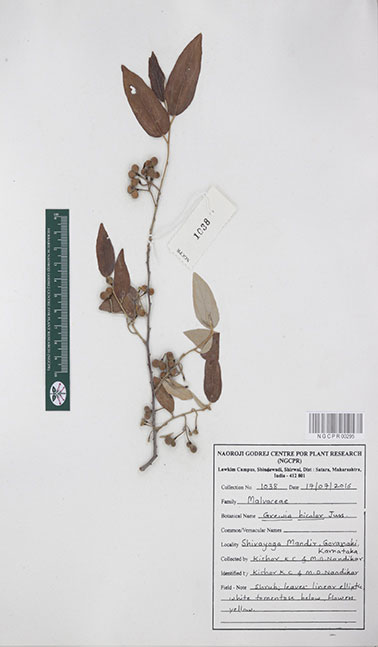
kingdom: Plantae
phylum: Tracheophyta
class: Magnoliopsida
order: Malvales
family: Malvaceae
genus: Grewia
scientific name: Grewia bicolor
